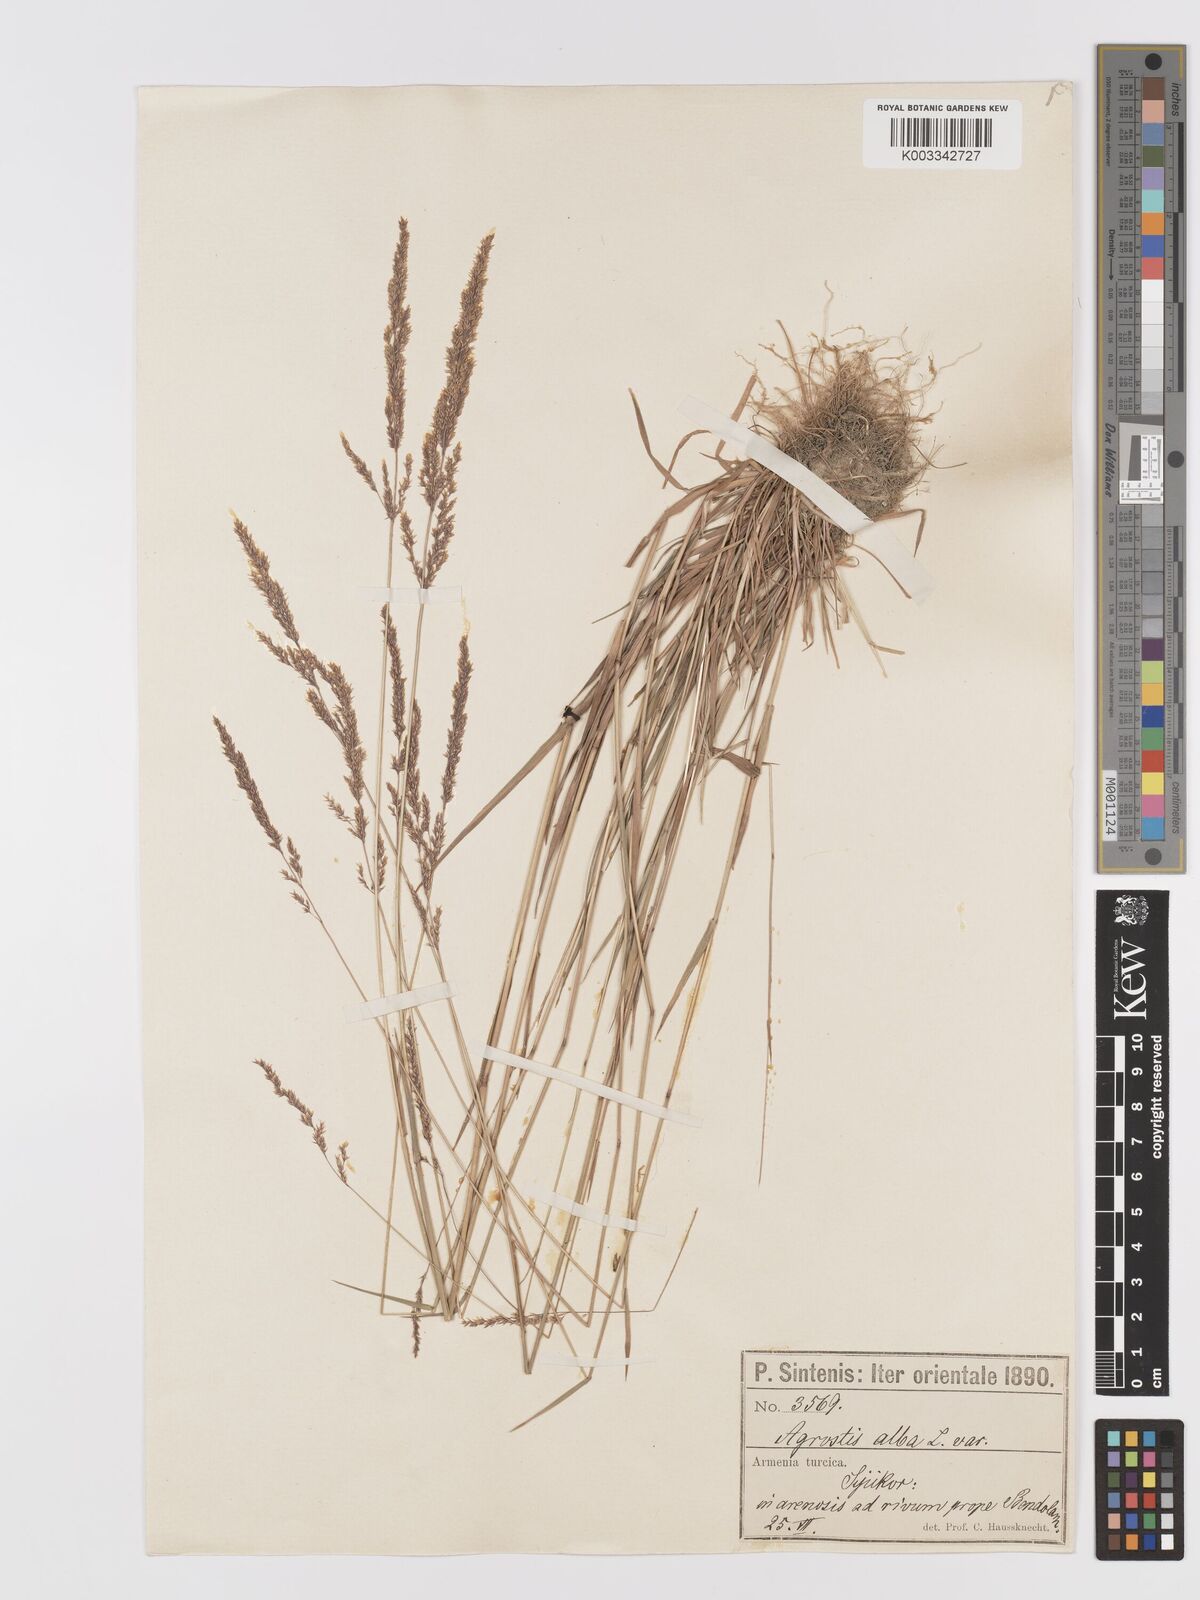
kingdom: Plantae
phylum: Tracheophyta
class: Liliopsida
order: Poales
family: Poaceae
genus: Agrostis
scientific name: Agrostis stolonifera
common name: Creeping bentgrass
